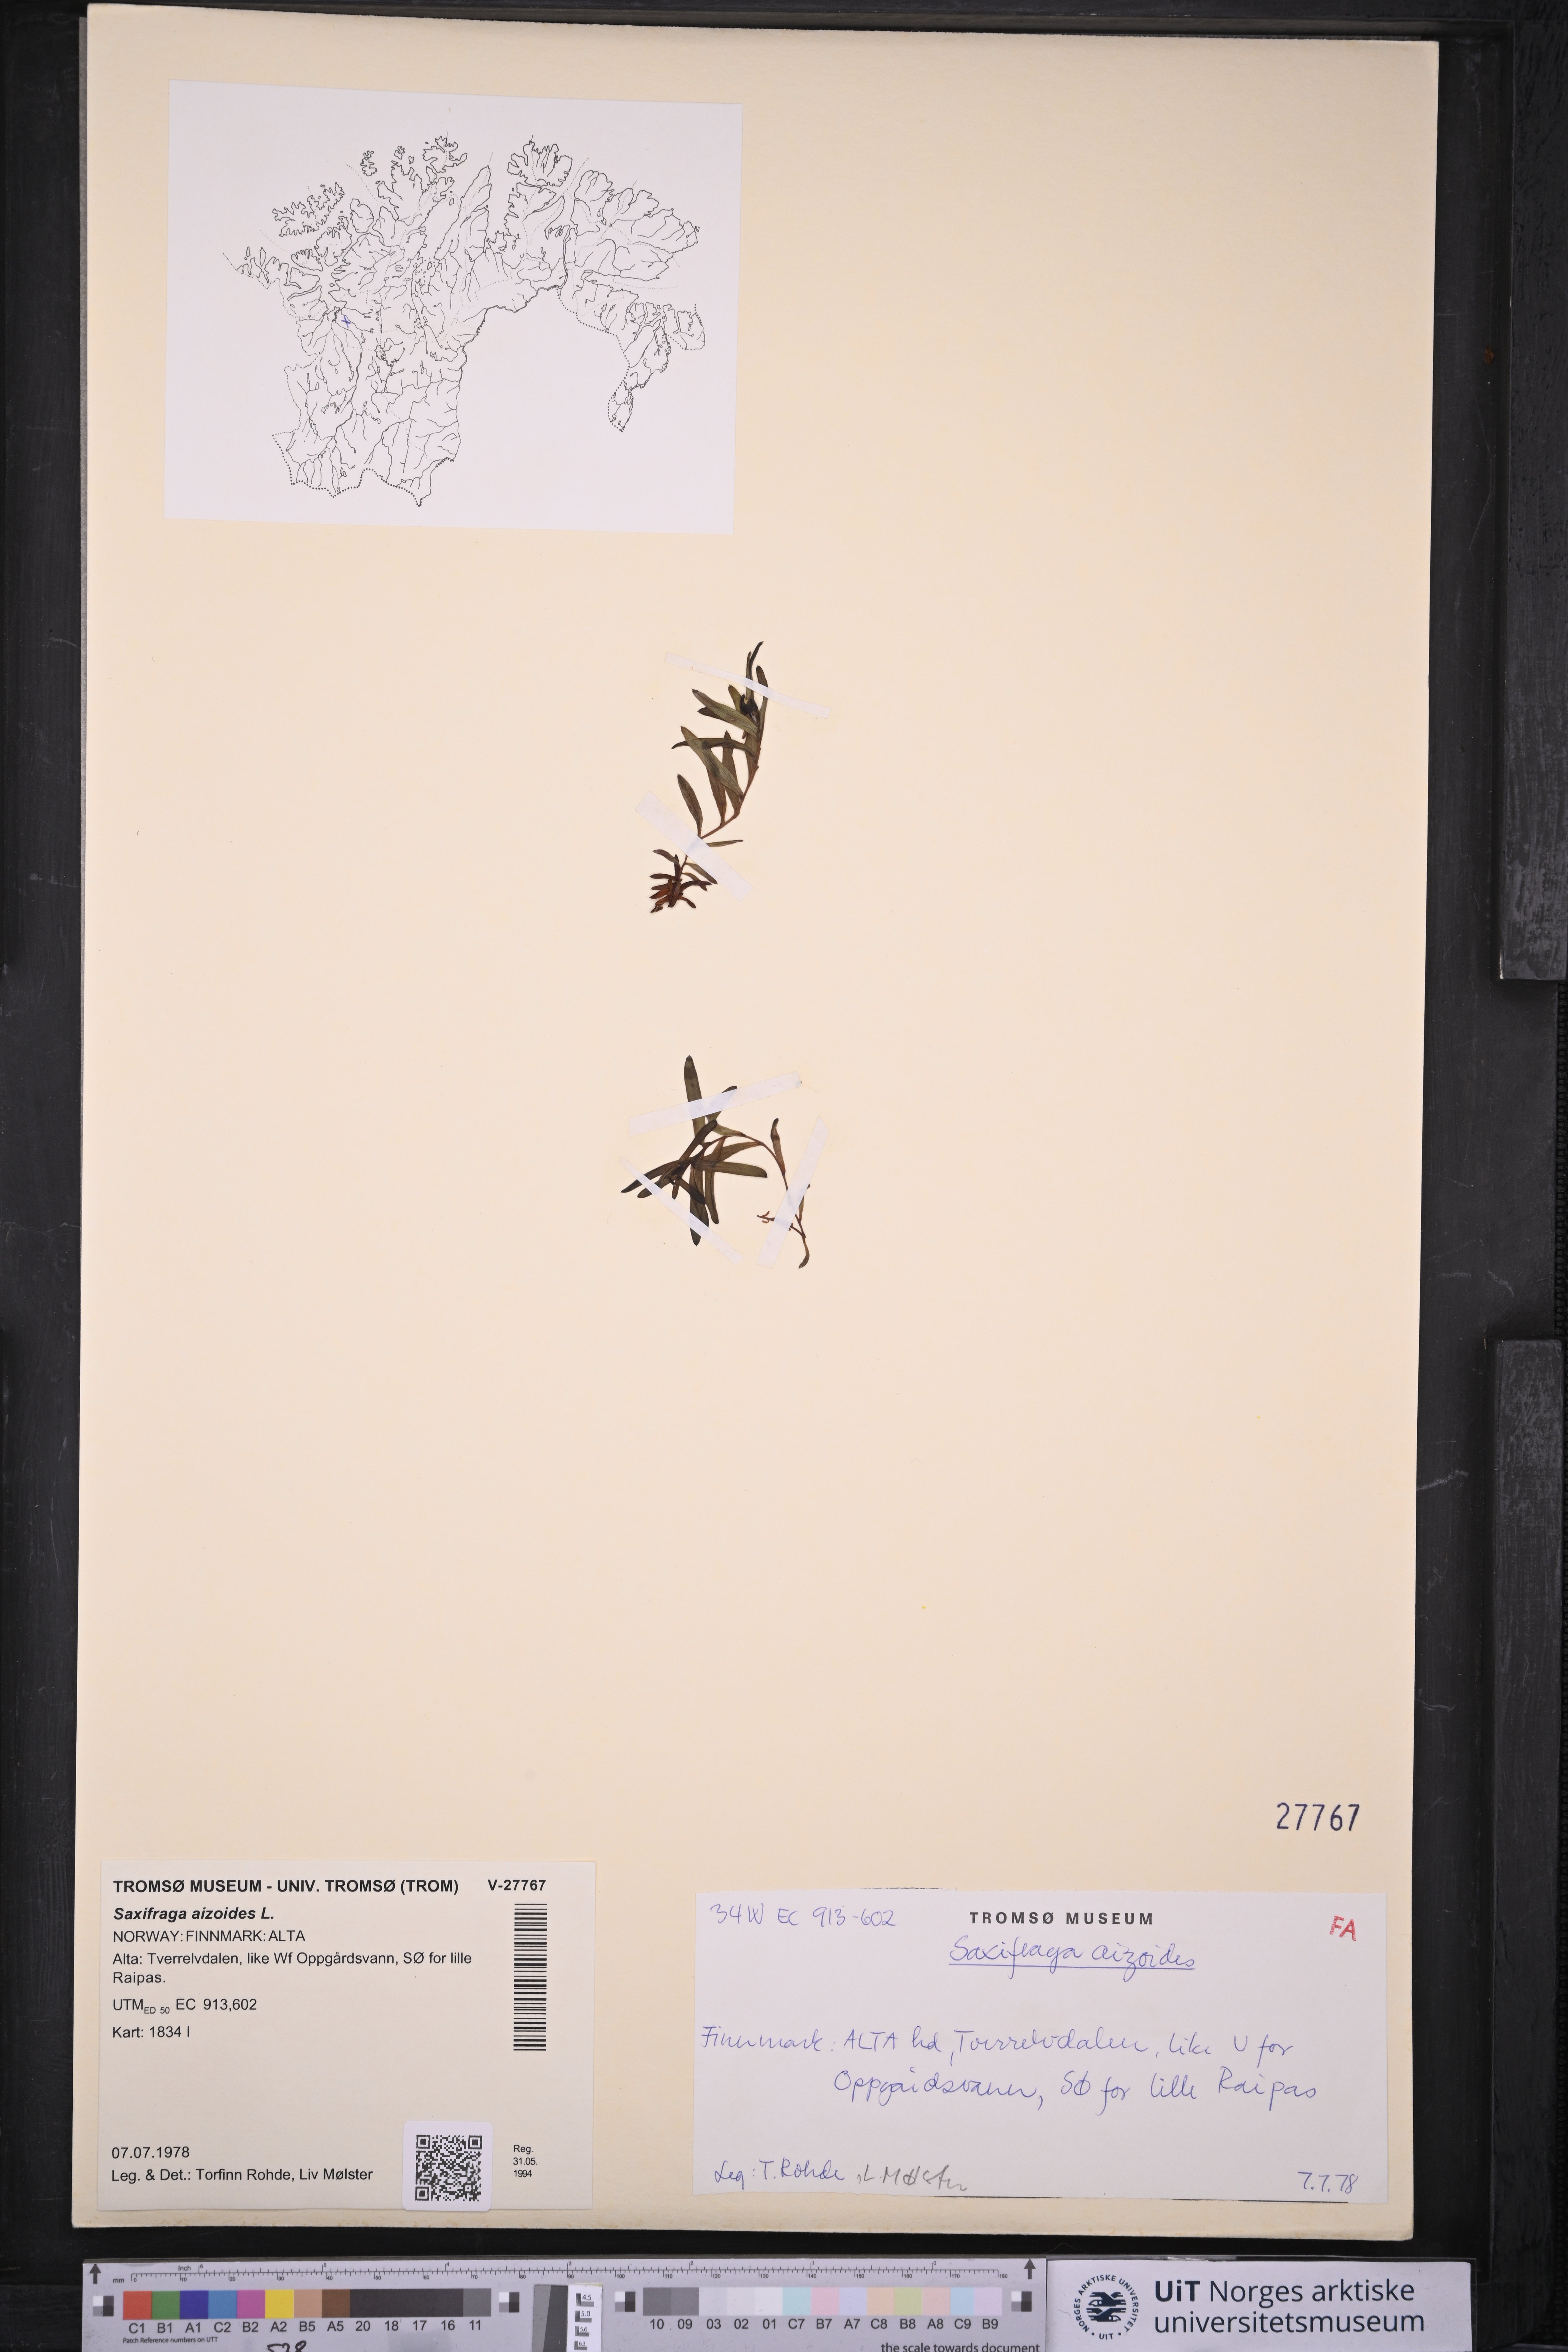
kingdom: Plantae
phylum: Tracheophyta
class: Magnoliopsida
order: Saxifragales
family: Saxifragaceae
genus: Saxifraga
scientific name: Saxifraga aizoides
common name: Yellow mountain saxifrage
